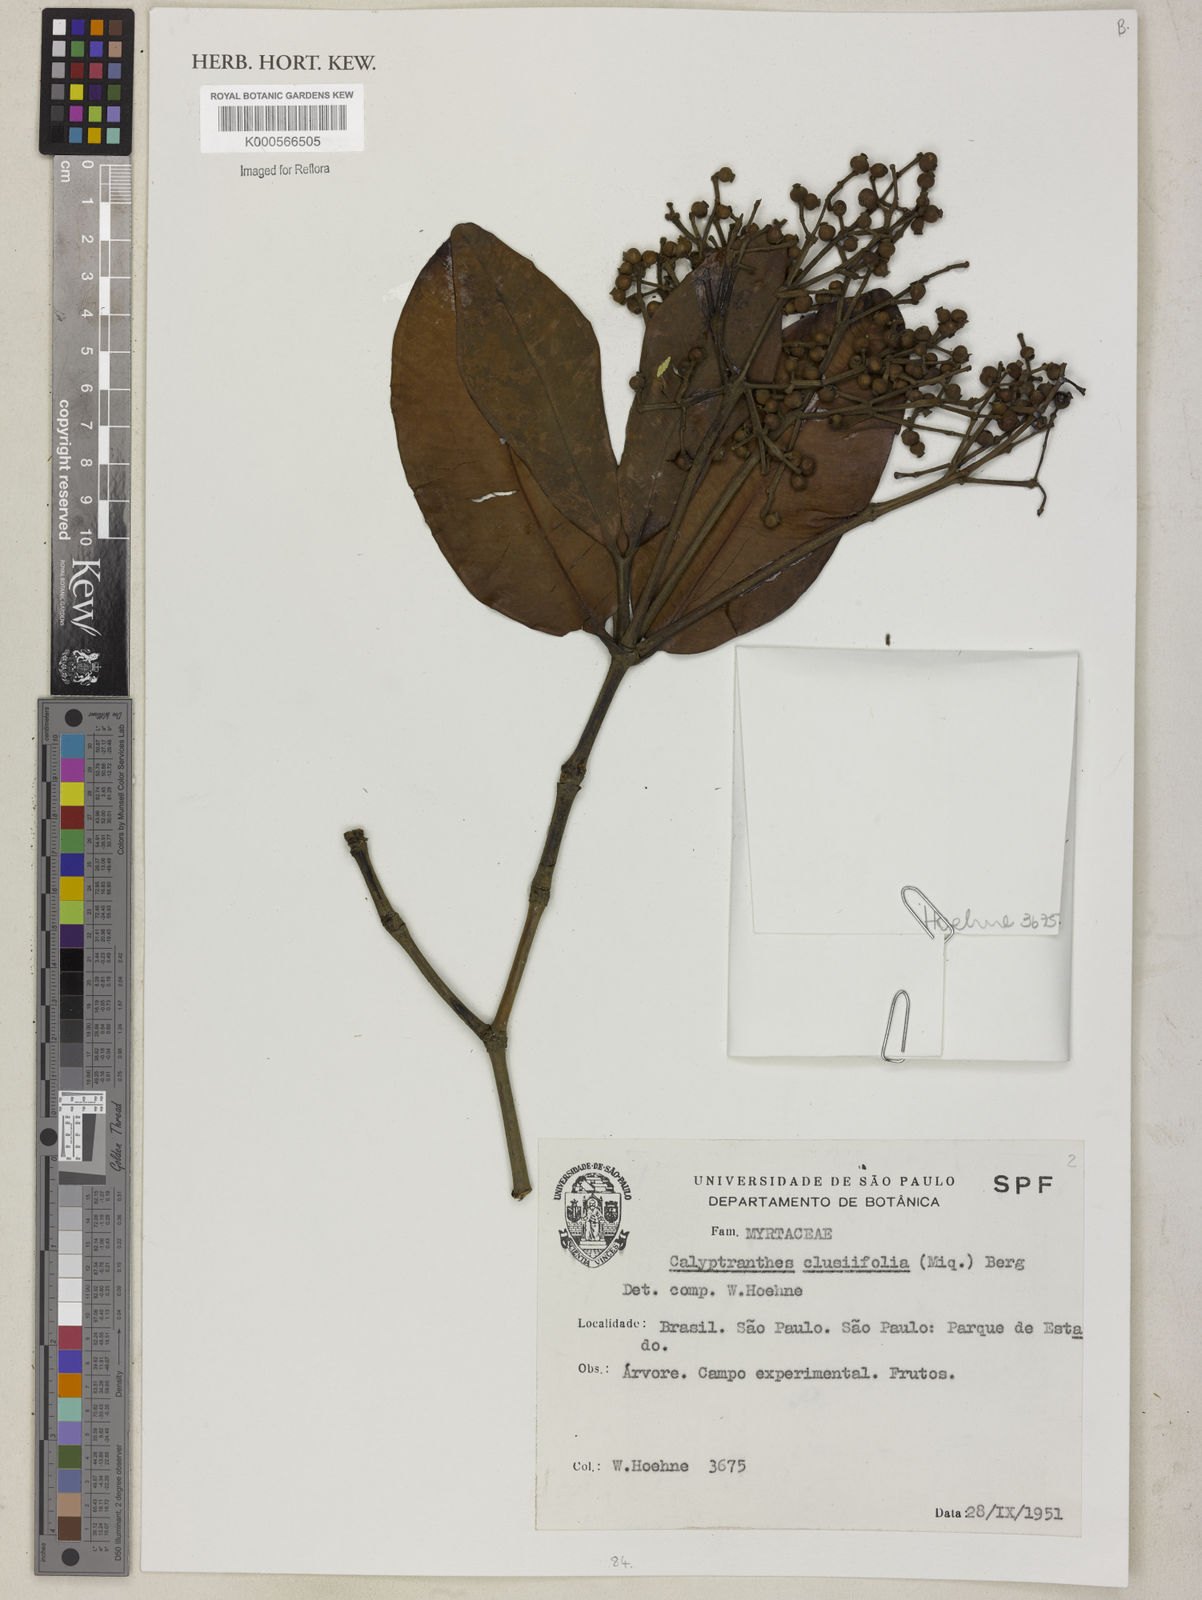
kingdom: Plantae
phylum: Tracheophyta
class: Magnoliopsida
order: Myrtales
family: Myrtaceae
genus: Myrcia
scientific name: Myrcia neoclusiifolia
